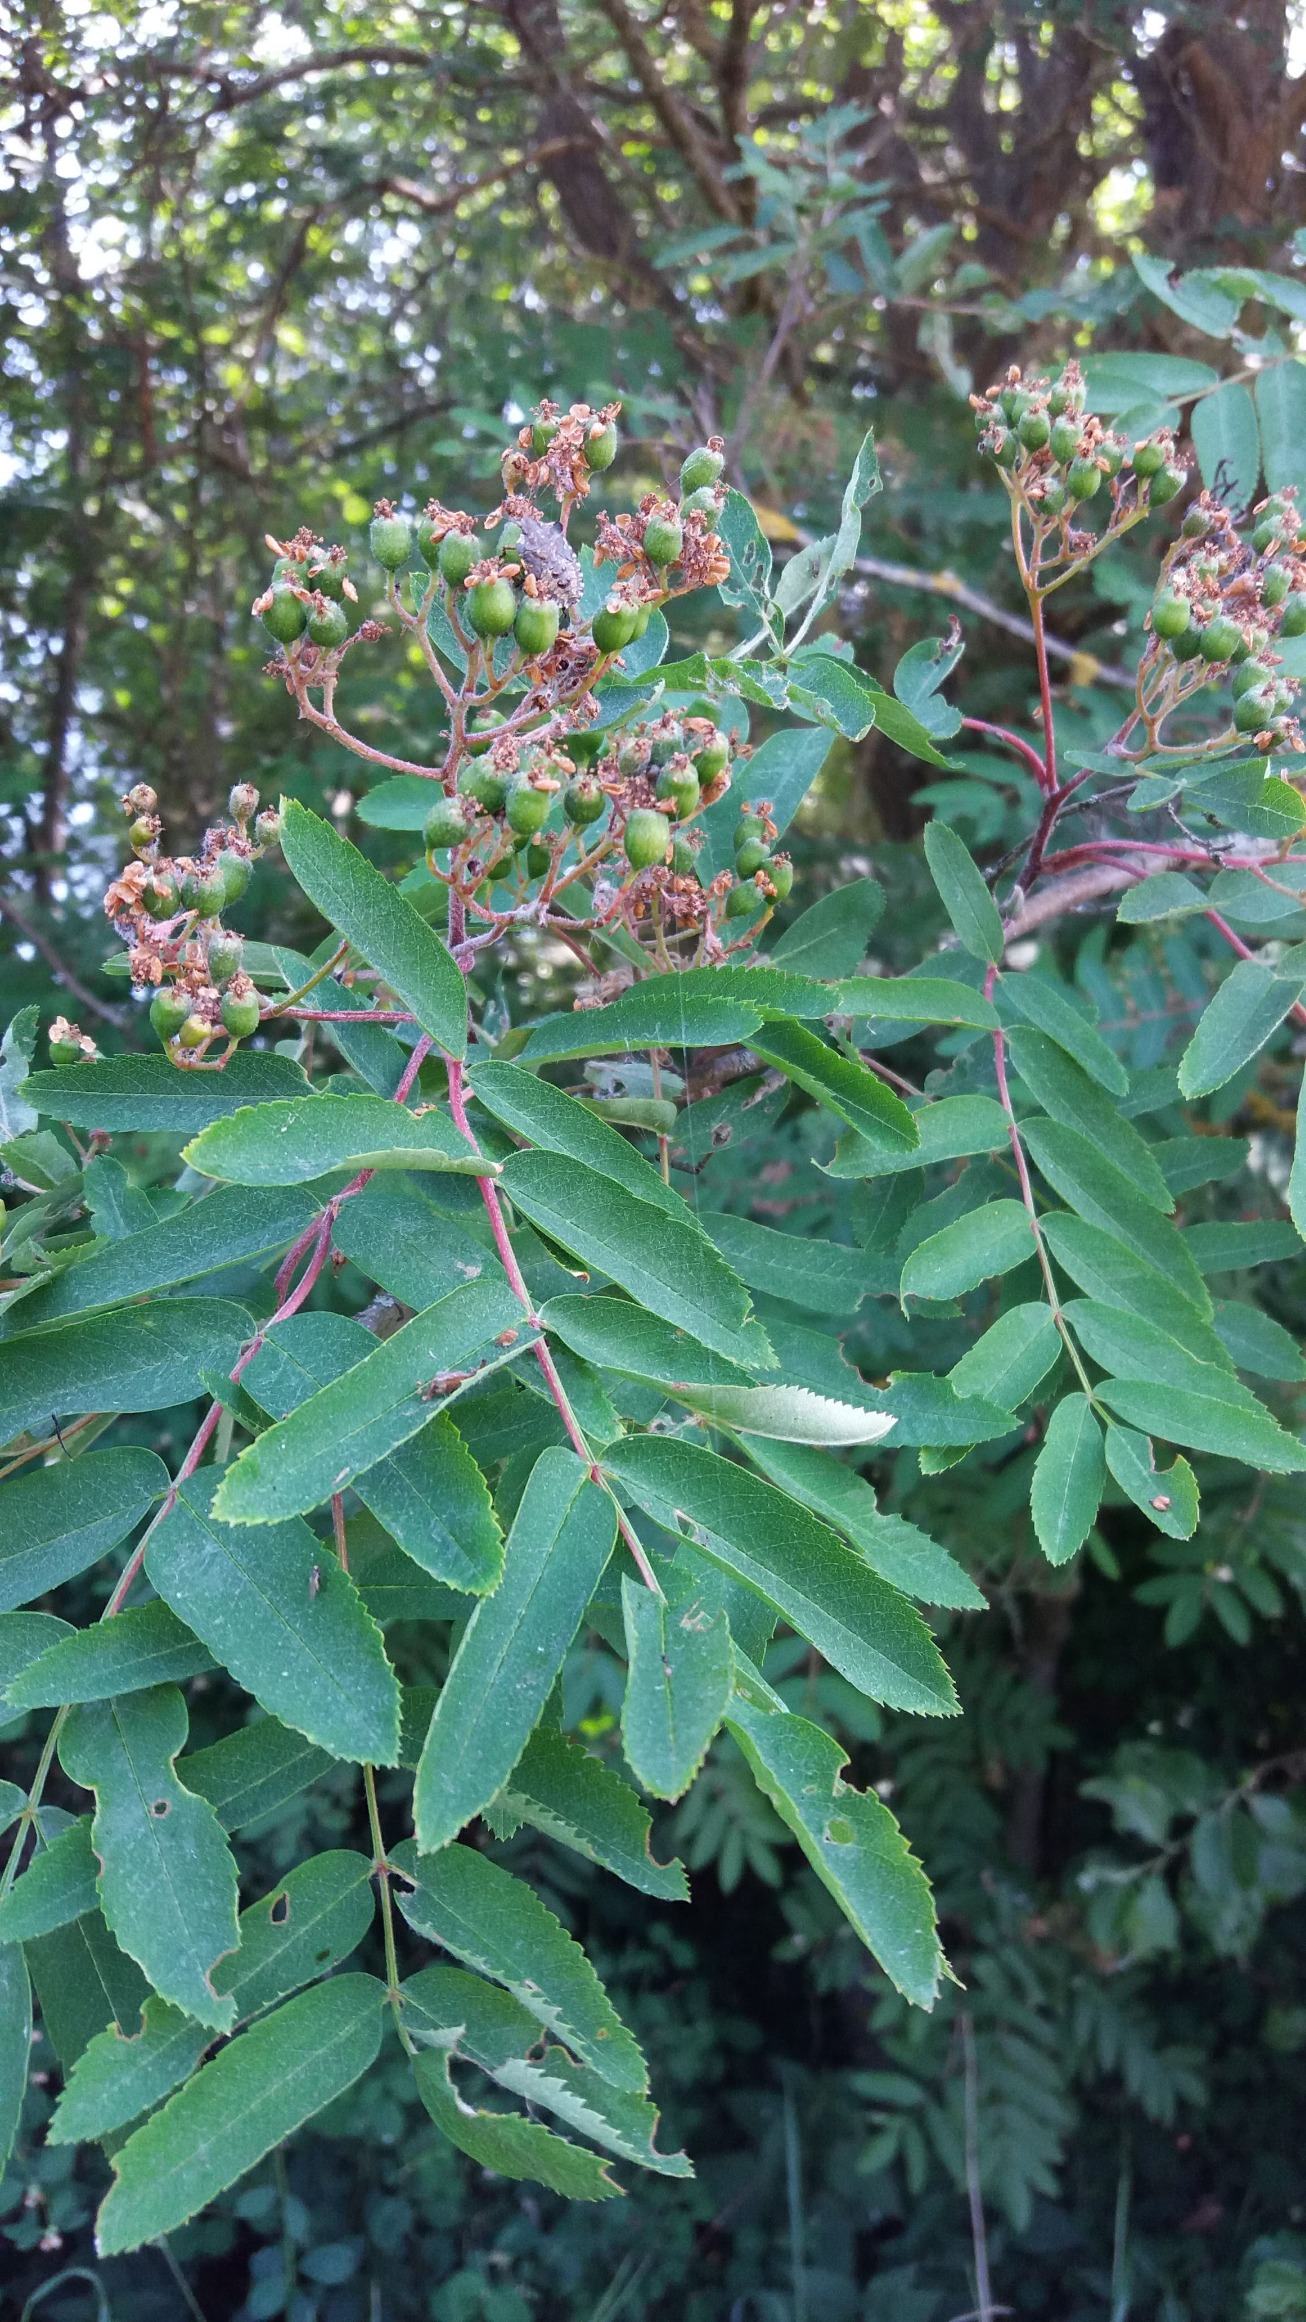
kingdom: Plantae
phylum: Tracheophyta
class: Magnoliopsida
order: Rosales
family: Rosaceae
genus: Sorbus
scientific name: Sorbus aucuparia
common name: Almindelig røn
